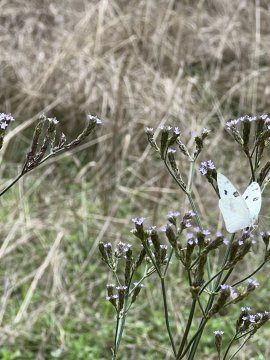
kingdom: Animalia
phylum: Arthropoda
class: Insecta
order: Lepidoptera
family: Pieridae
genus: Pontia
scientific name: Pontia protodice
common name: Checkered White
